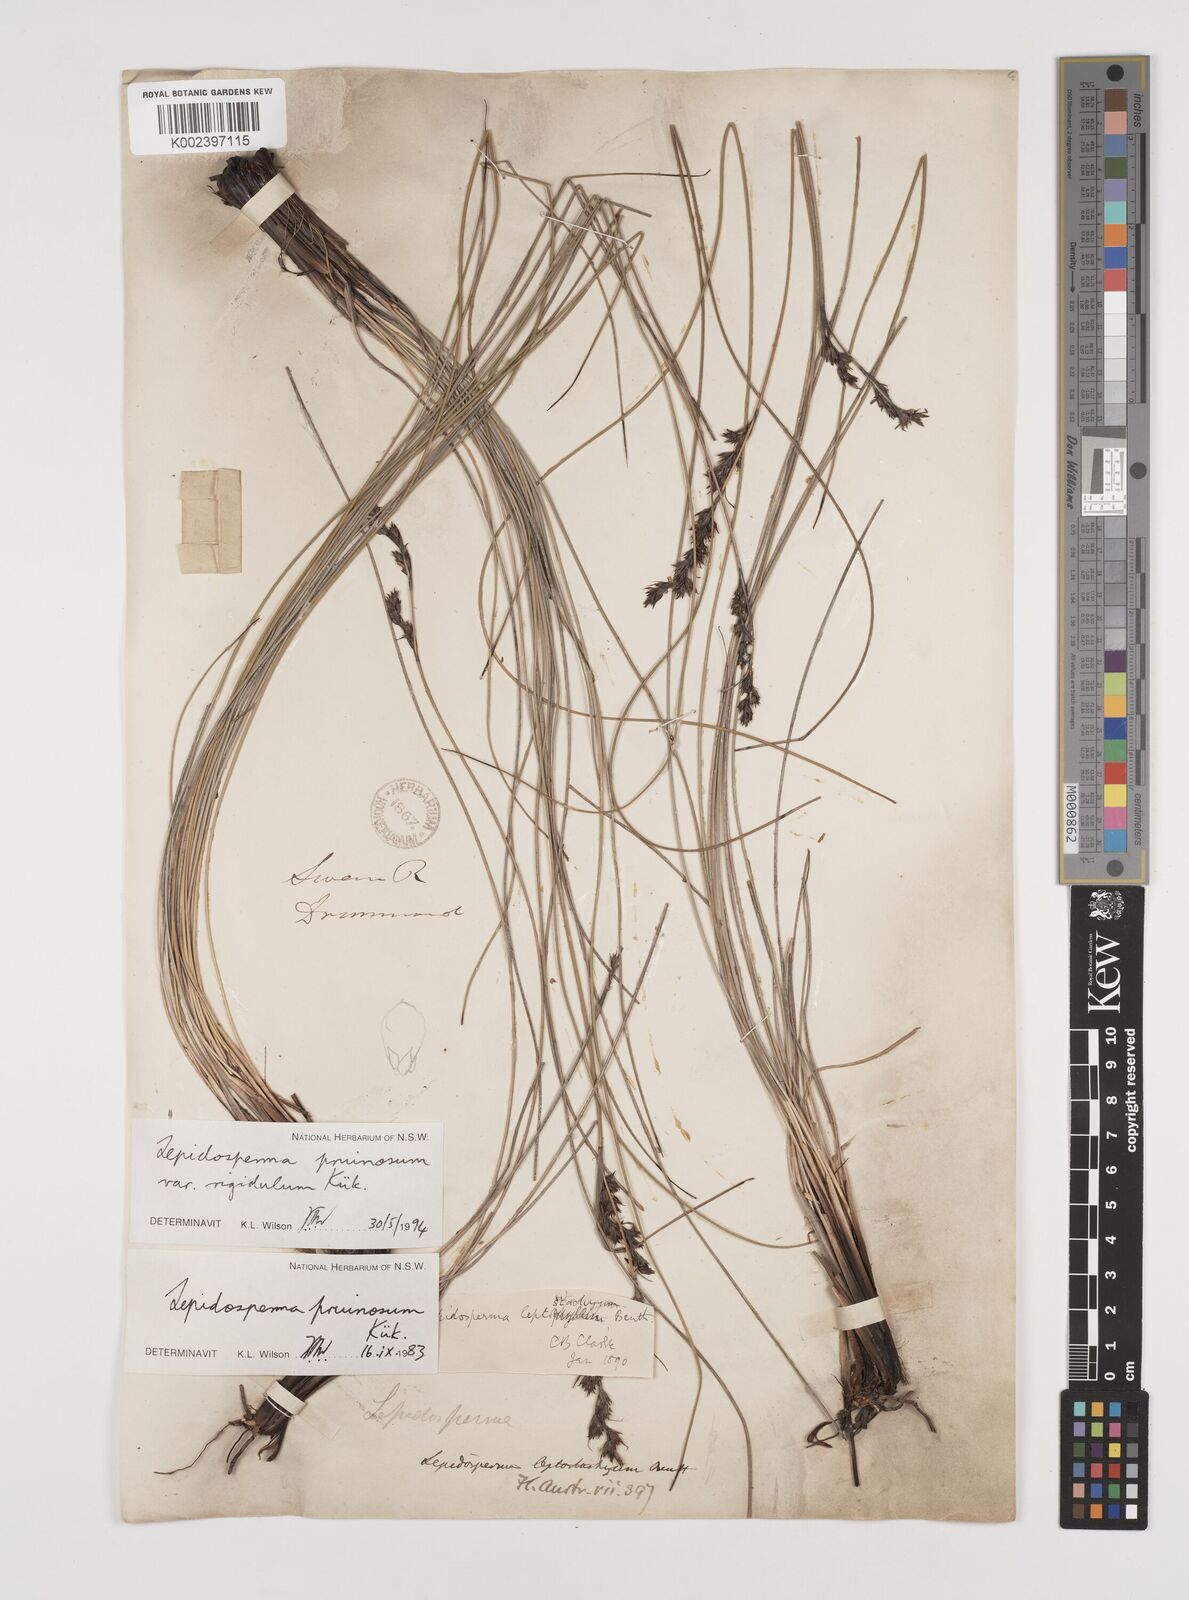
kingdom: Plantae
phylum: Tracheophyta
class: Liliopsida
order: Poales
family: Cyperaceae
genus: Lepidosperma
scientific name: Lepidosperma pruinosum
